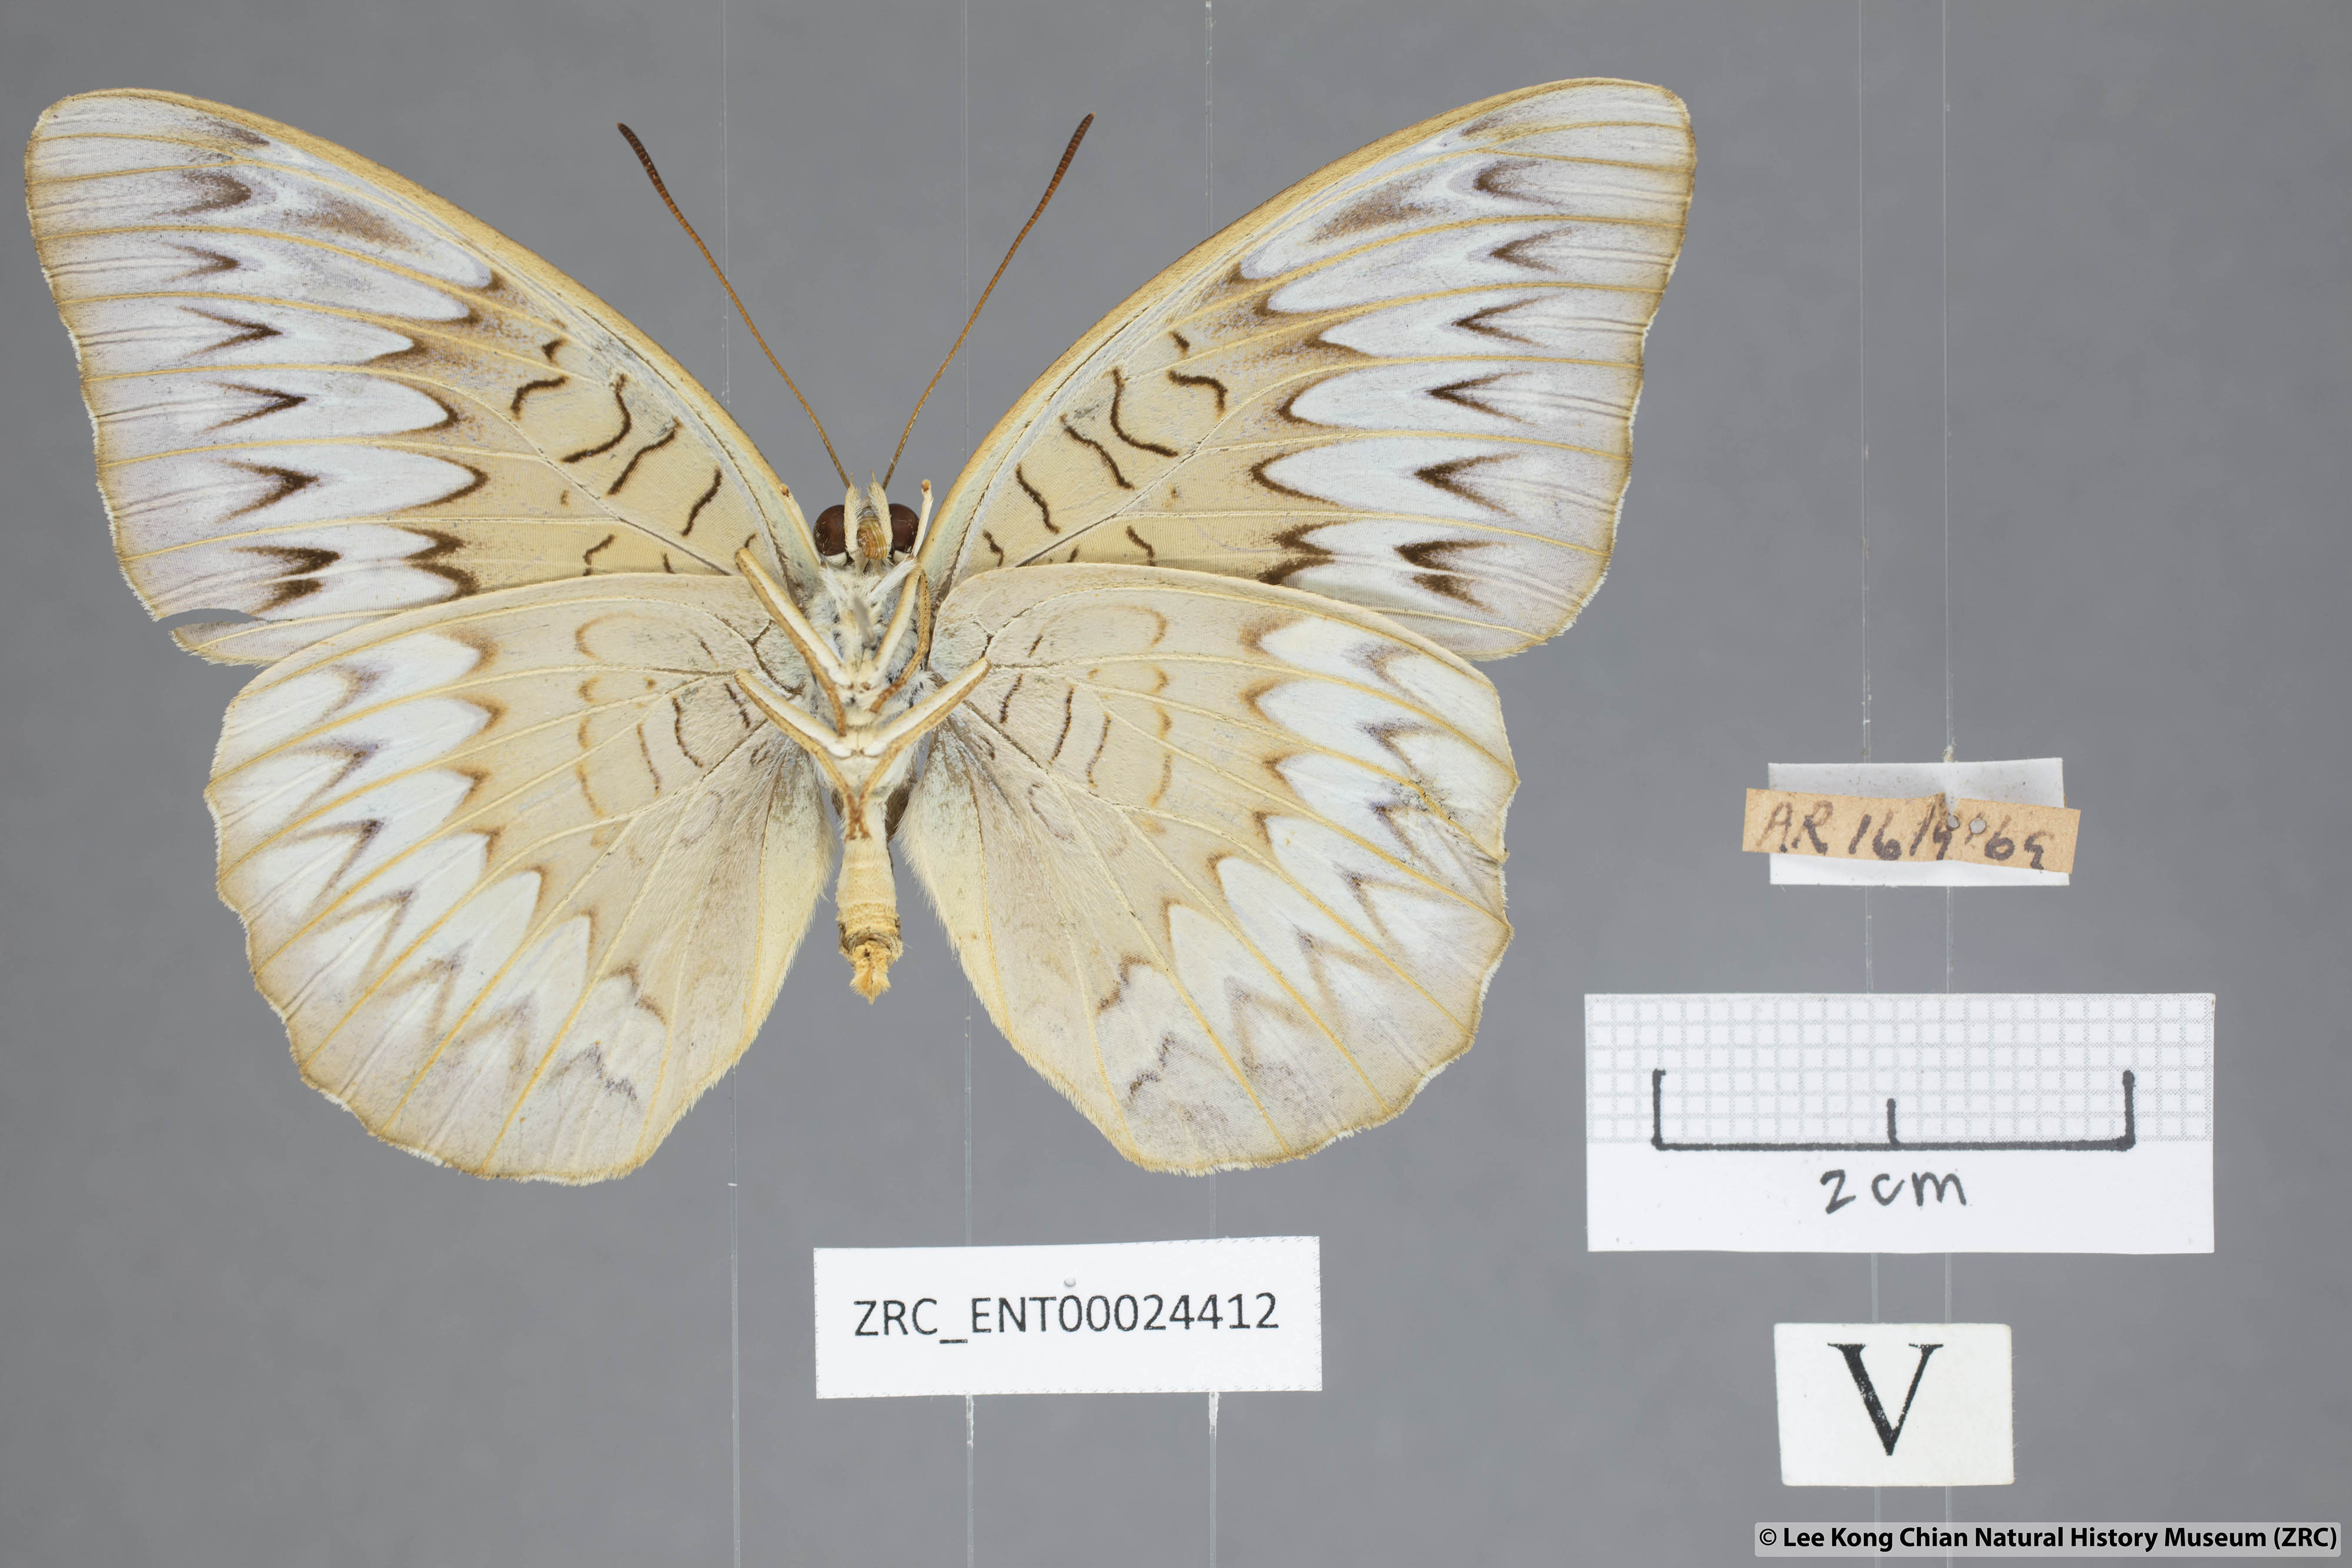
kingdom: Animalia
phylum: Arthropoda
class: Insecta
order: Lepidoptera
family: Nymphalidae
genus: Tanaecia
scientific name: Tanaecia pelea
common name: Malay viscount
